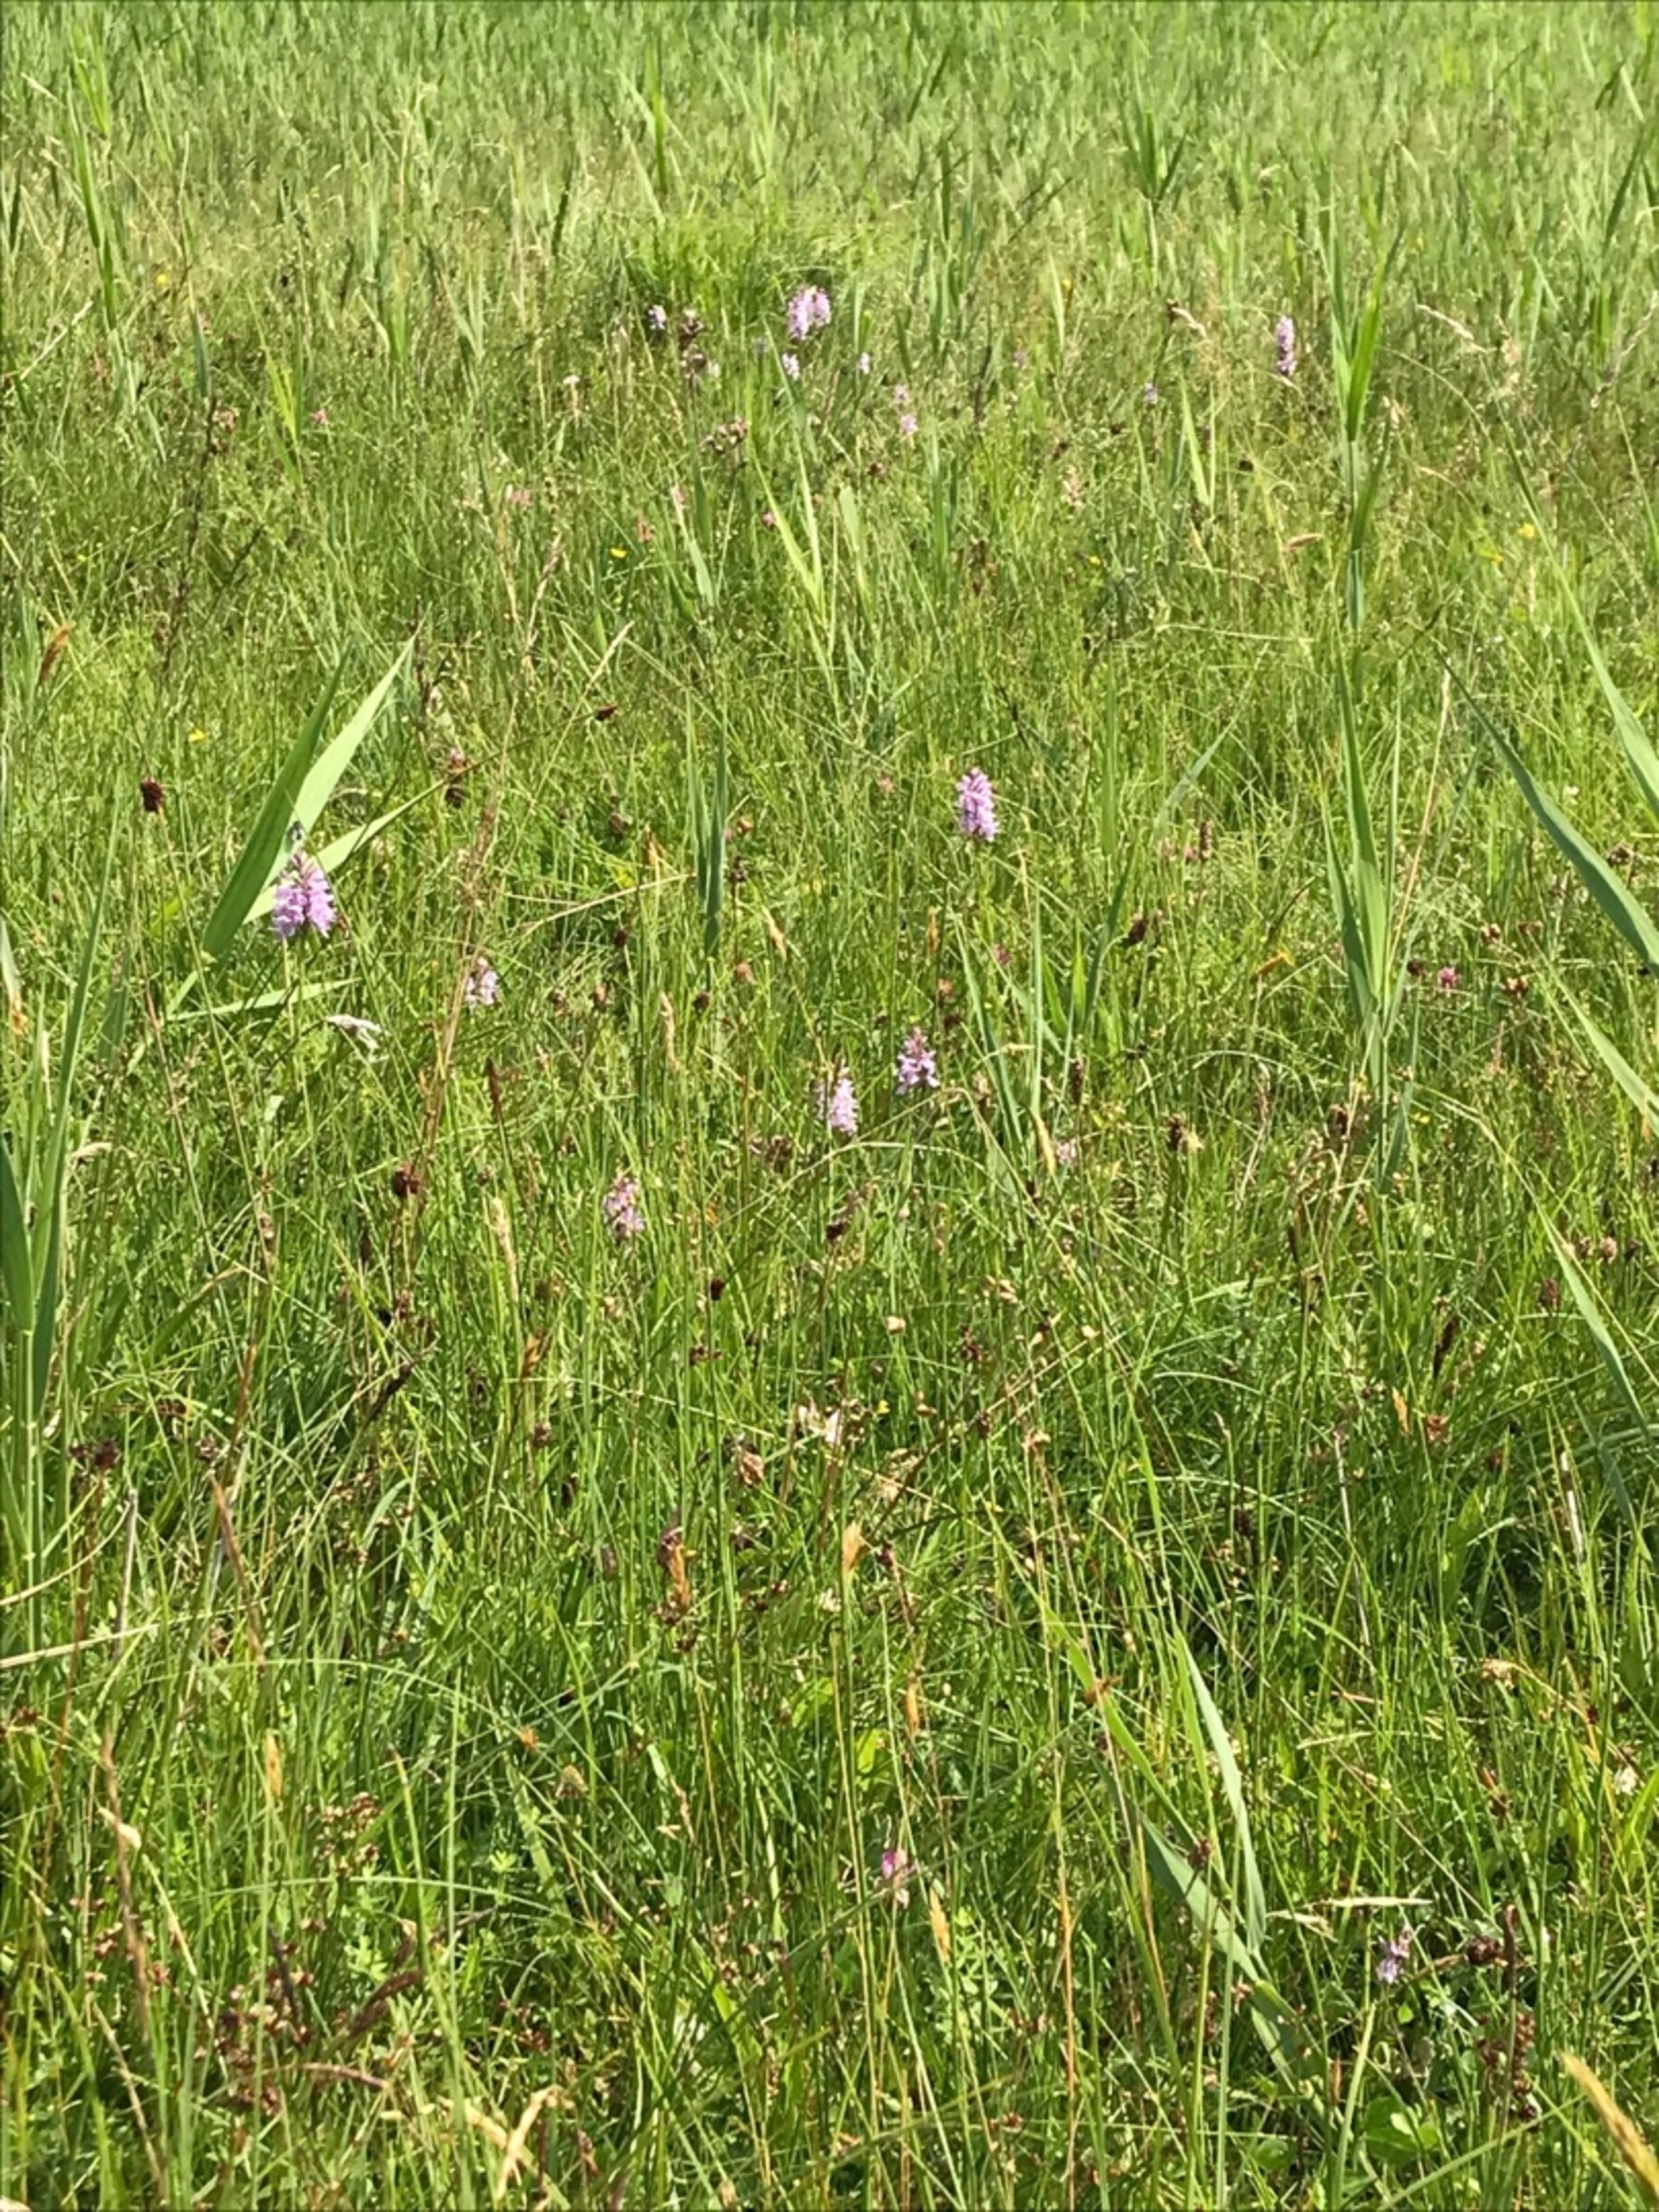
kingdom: Plantae
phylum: Tracheophyta
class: Liliopsida
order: Asparagales
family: Orchidaceae
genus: Dactylorhiza
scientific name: Dactylorhiza maculata
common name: Plettet gøgeurt
